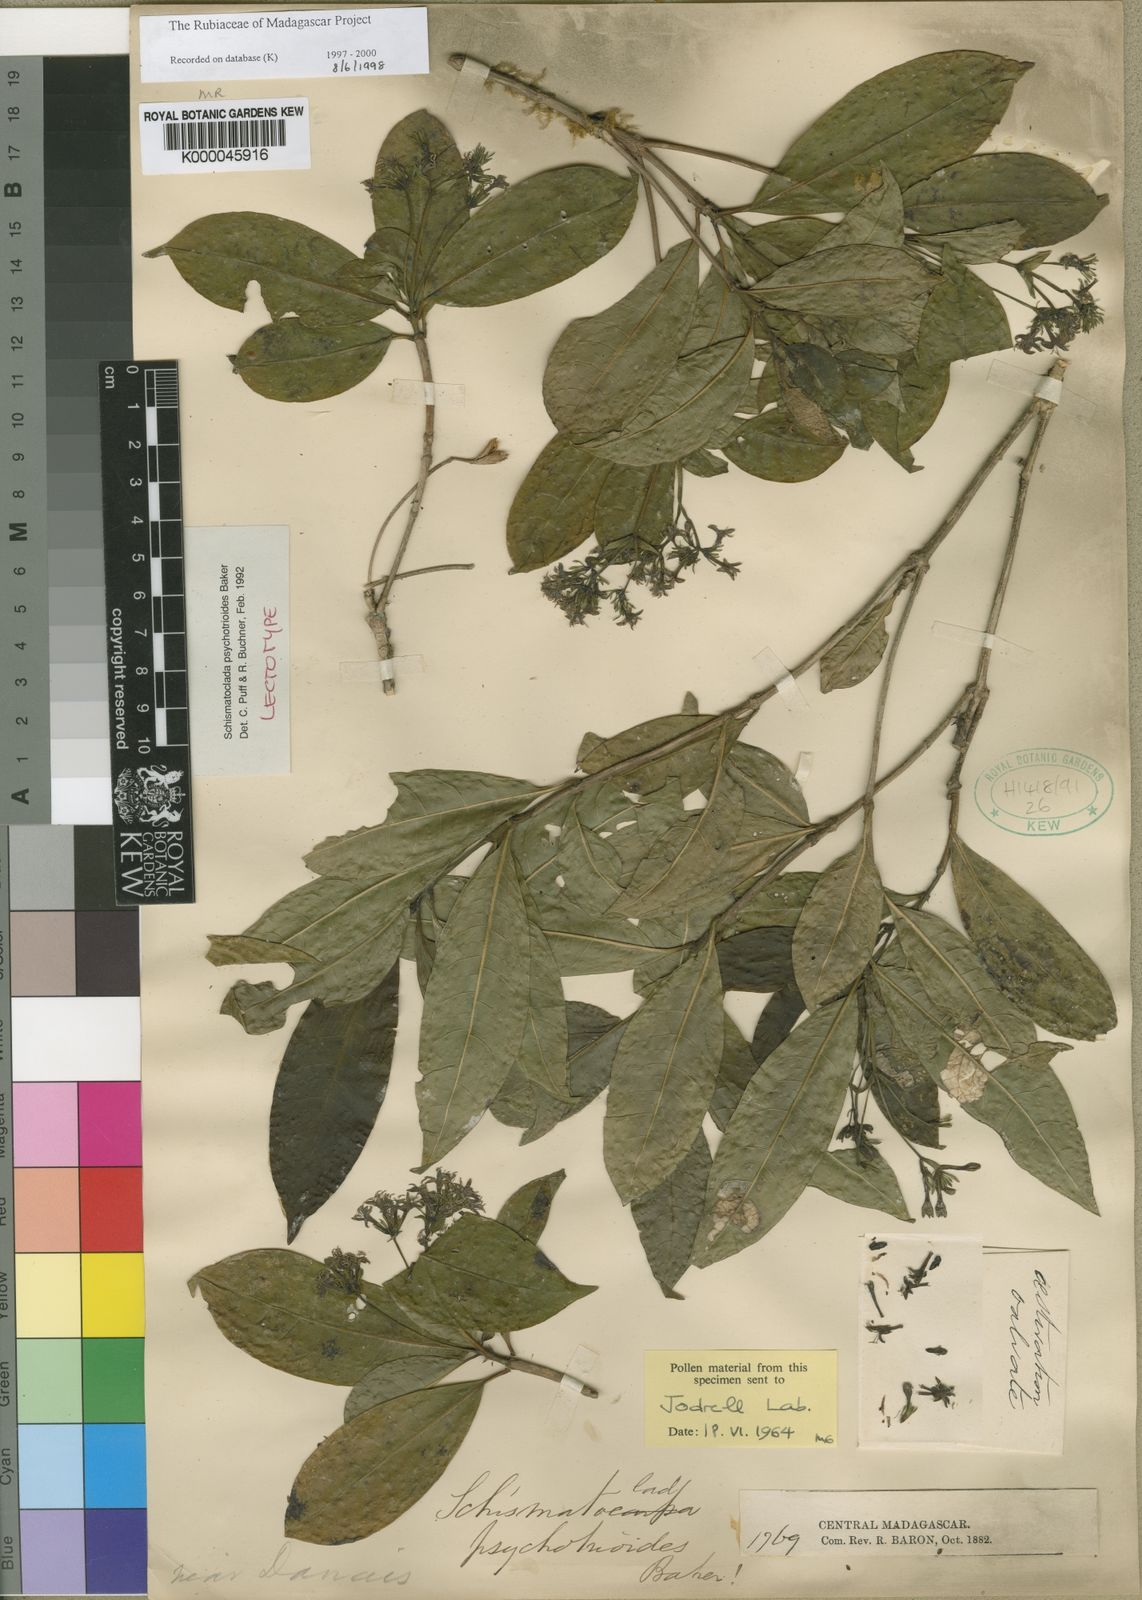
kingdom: Plantae
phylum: Tracheophyta
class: Magnoliopsida
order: Gentianales
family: Rubiaceae
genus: Schismatoclada
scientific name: Schismatoclada psychotrioides
